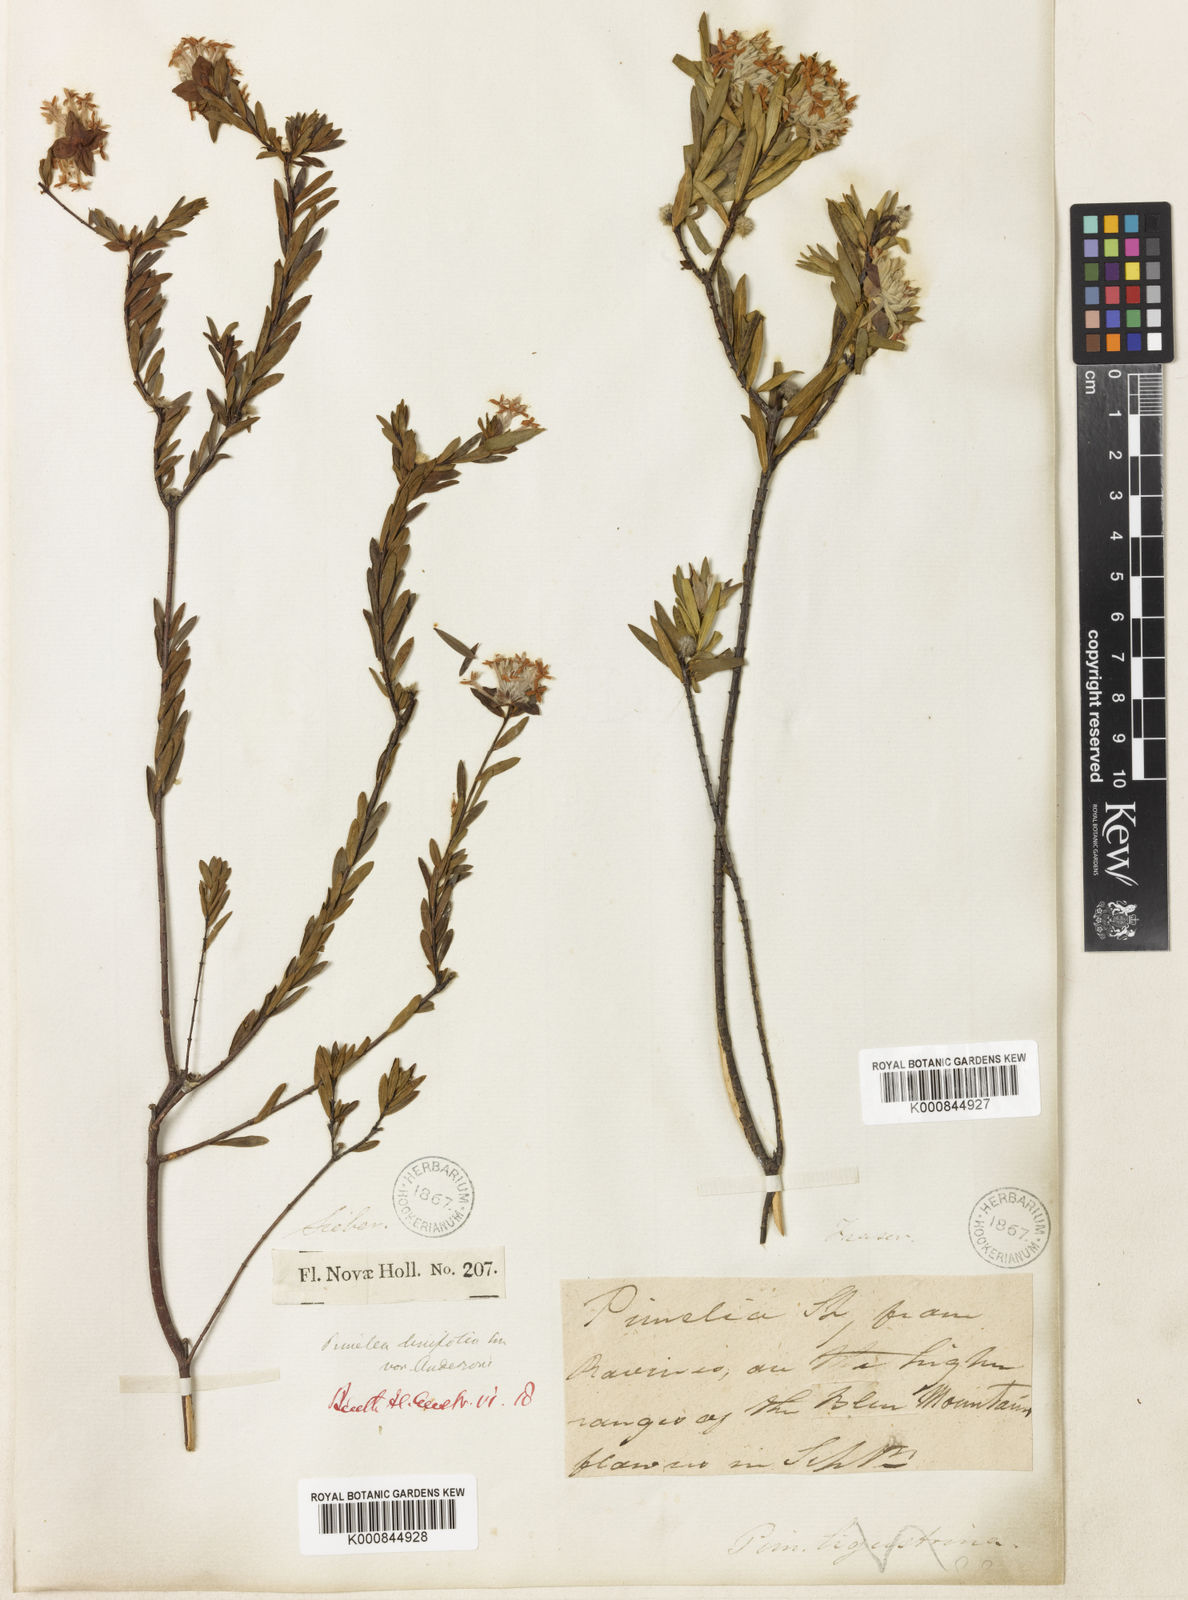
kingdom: Plantae
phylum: Tracheophyta
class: Magnoliopsida
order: Malvales
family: Thymelaeaceae
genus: Pimelea
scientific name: Pimelea linifolia
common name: Queen-of-the-bush
